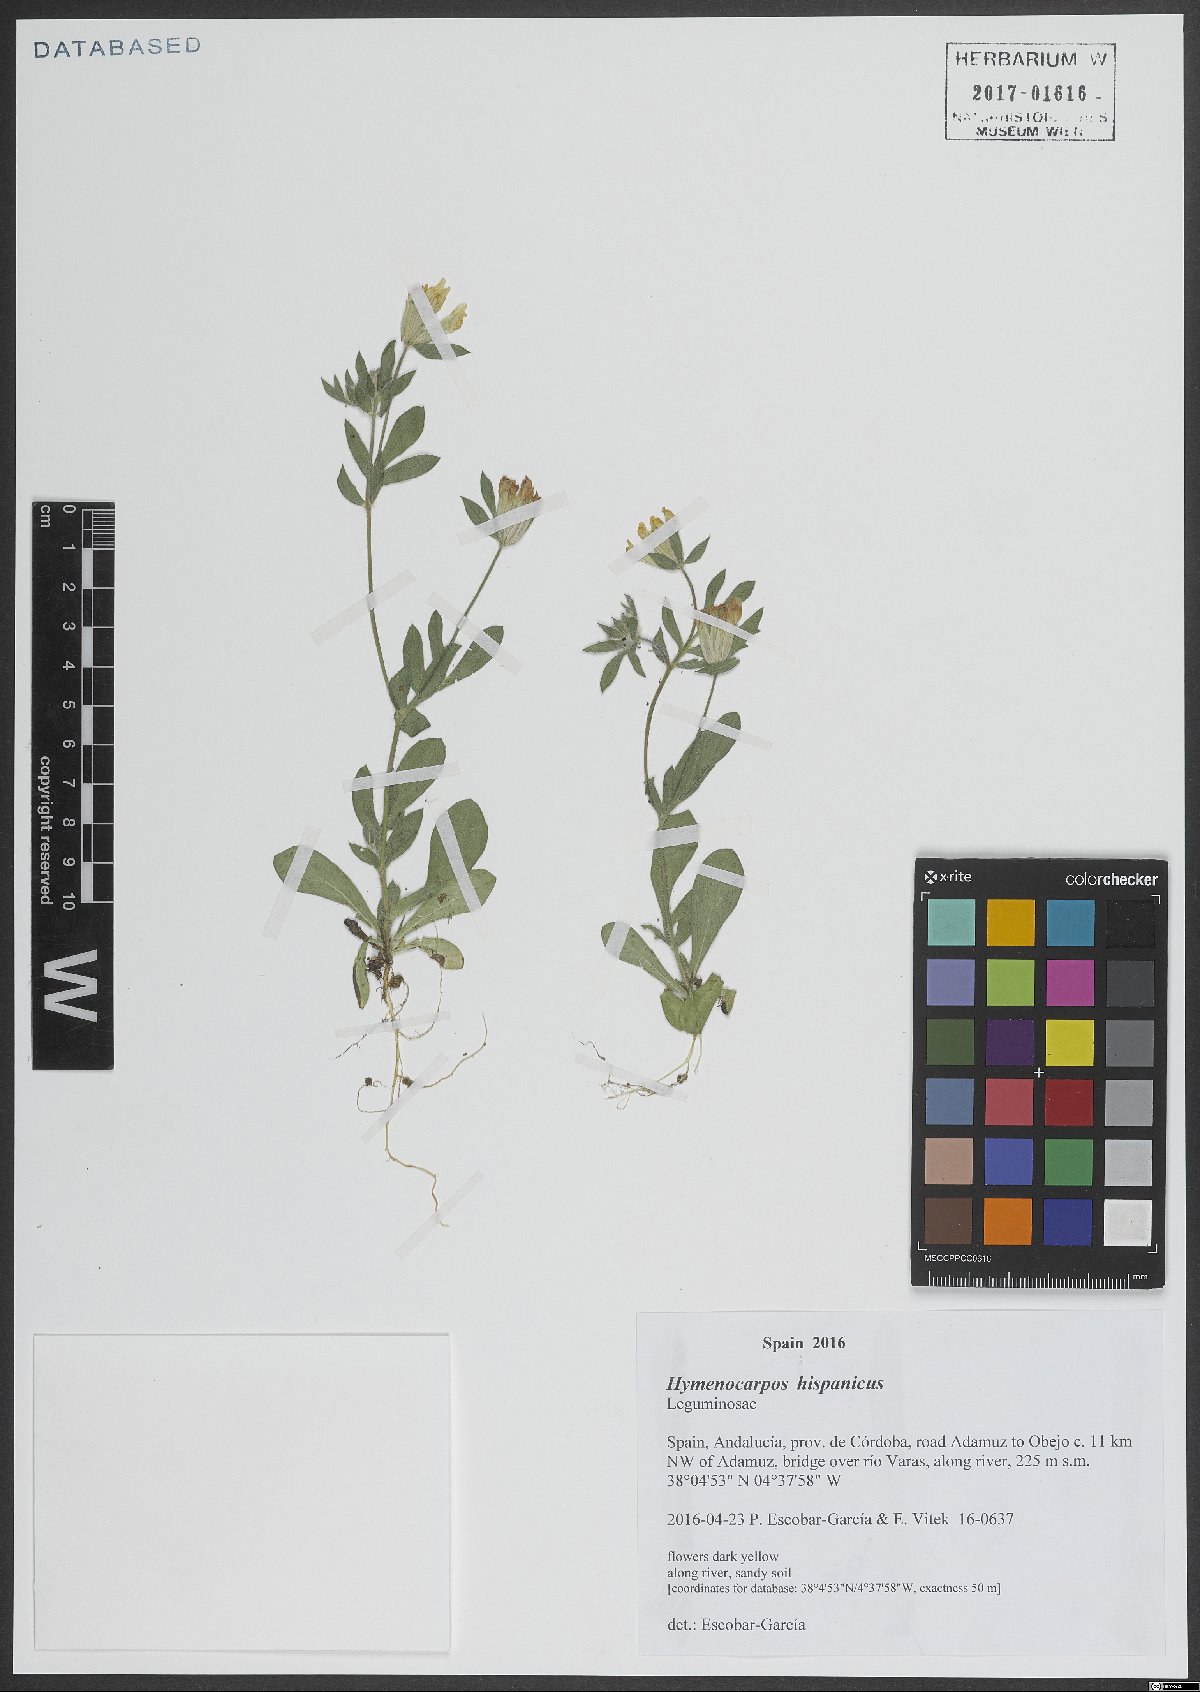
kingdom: Plantae
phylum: Tracheophyta
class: Magnoliopsida
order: Fabales
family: Fabaceae
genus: Anthyllis
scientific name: Anthyllis lotoides
